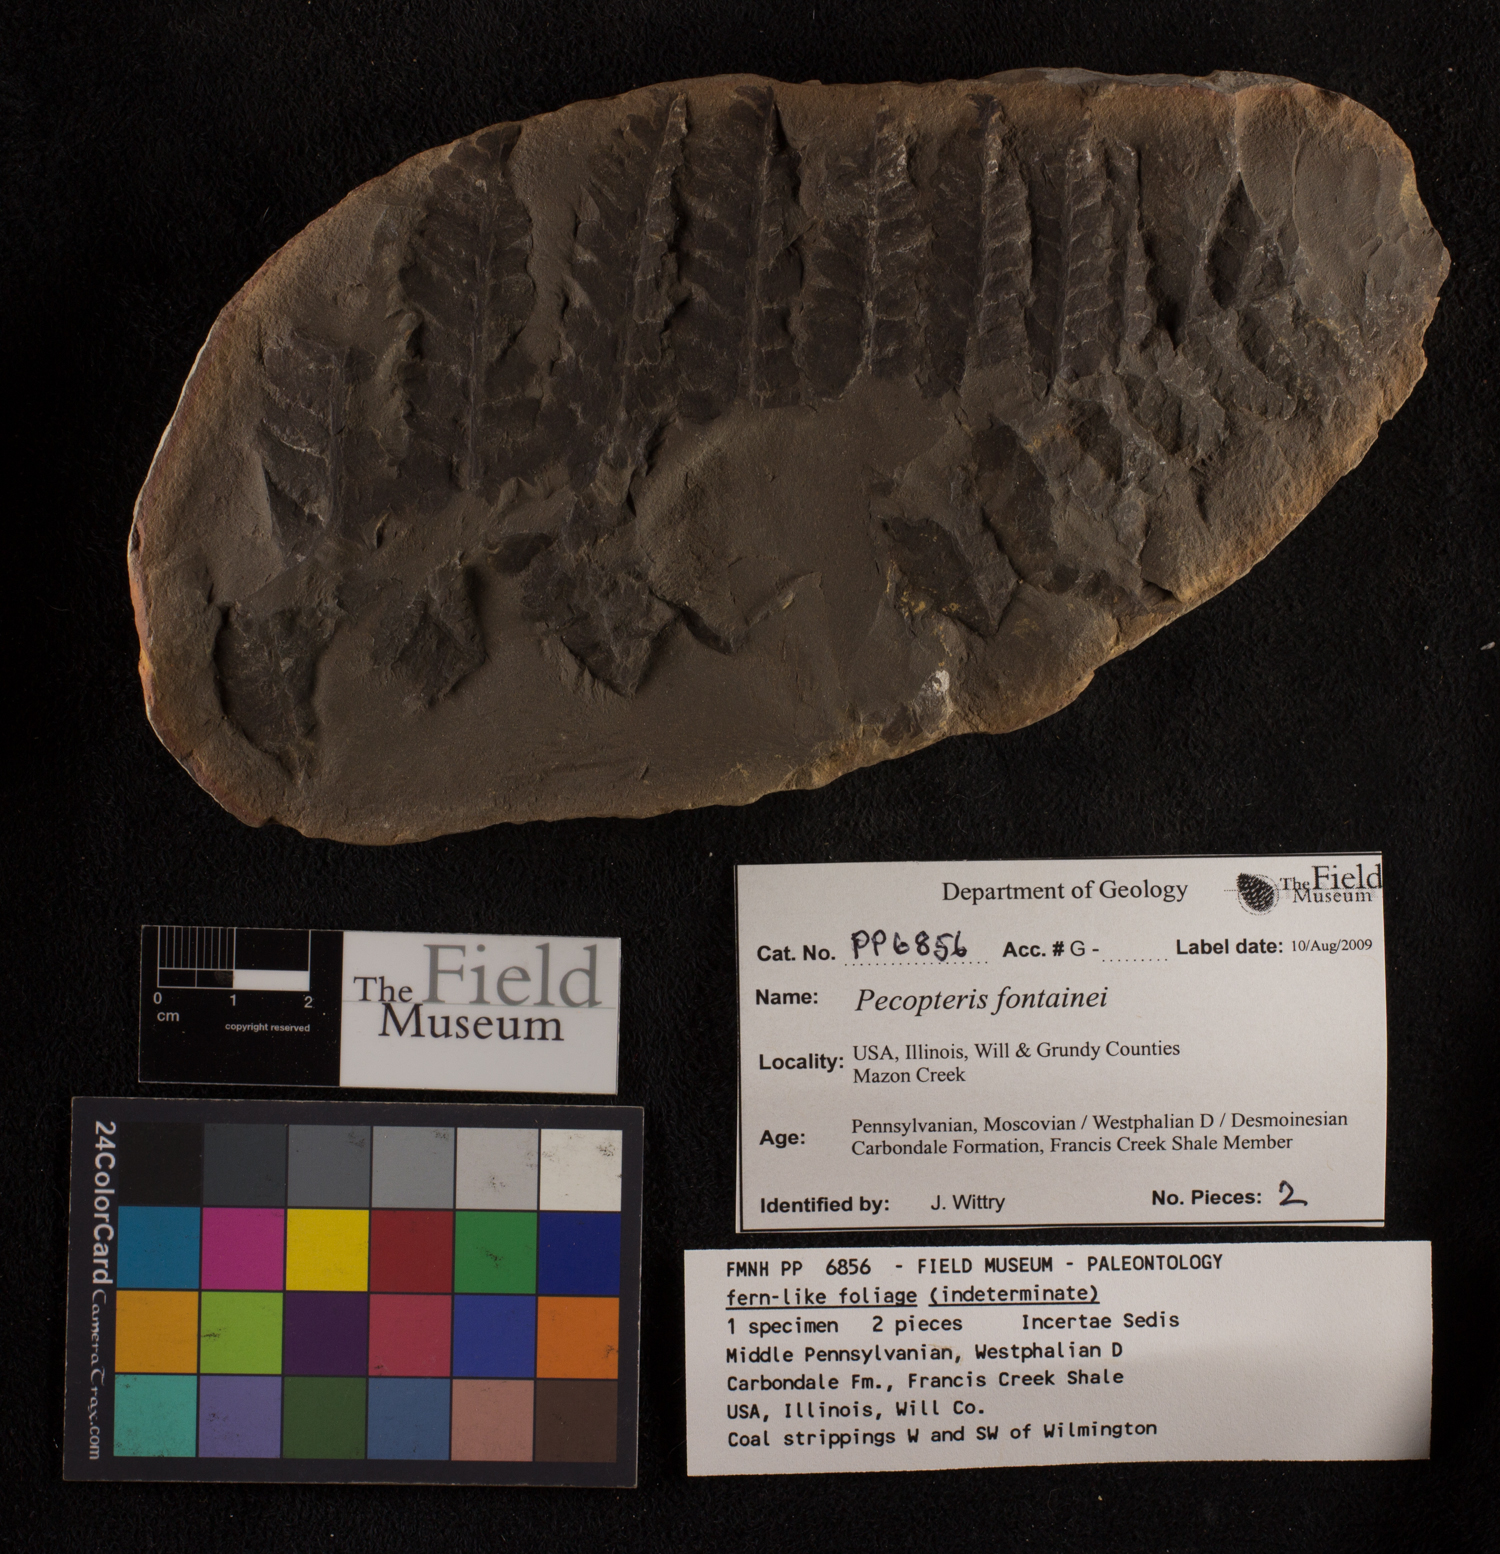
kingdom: Plantae
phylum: Tracheophyta
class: Polypodiopsida
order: Marattiales
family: Asterothecaceae
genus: Pecopteris
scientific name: Pecopteris
